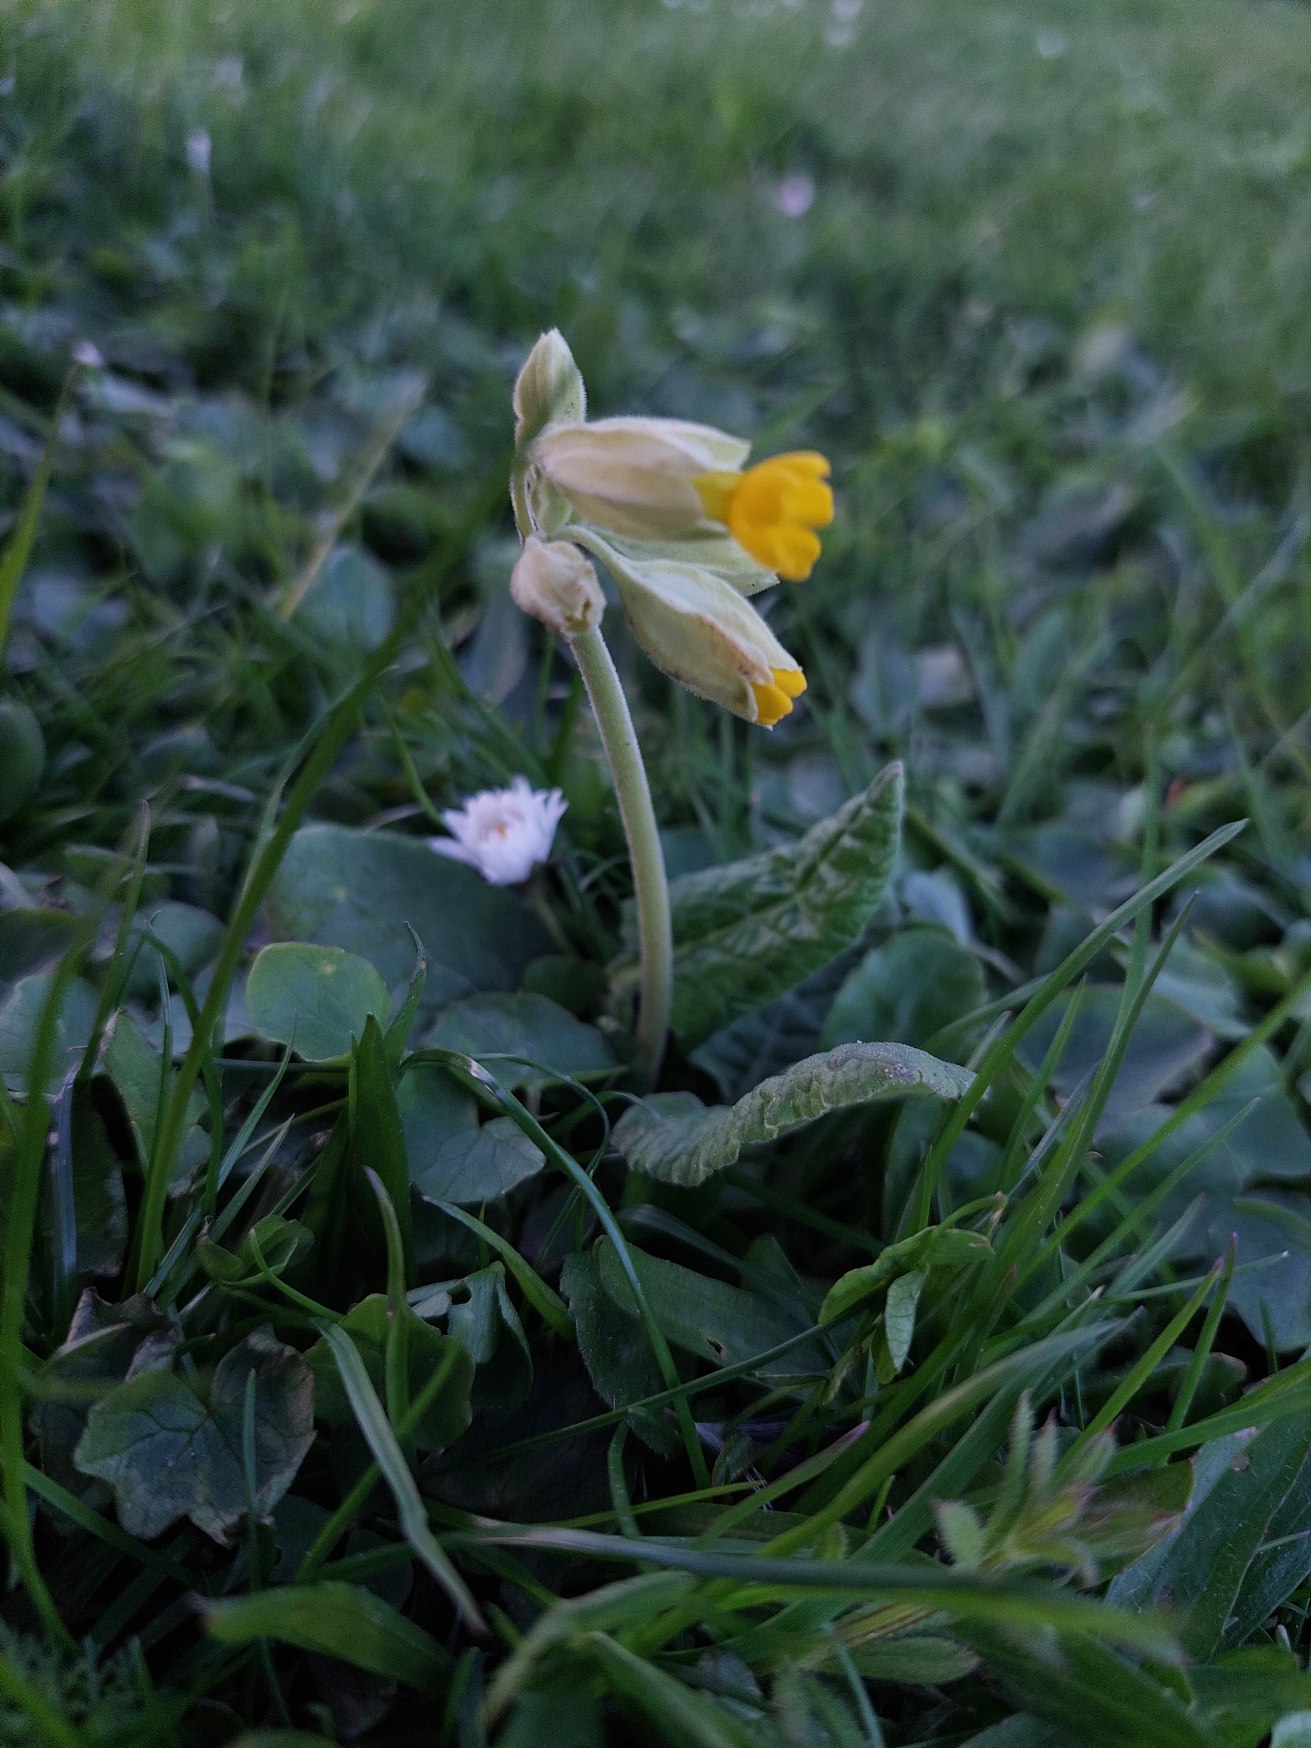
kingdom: Plantae
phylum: Tracheophyta
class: Magnoliopsida
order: Ericales
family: Primulaceae
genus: Primula
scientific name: Primula veris
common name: Hulkravet kodriver
